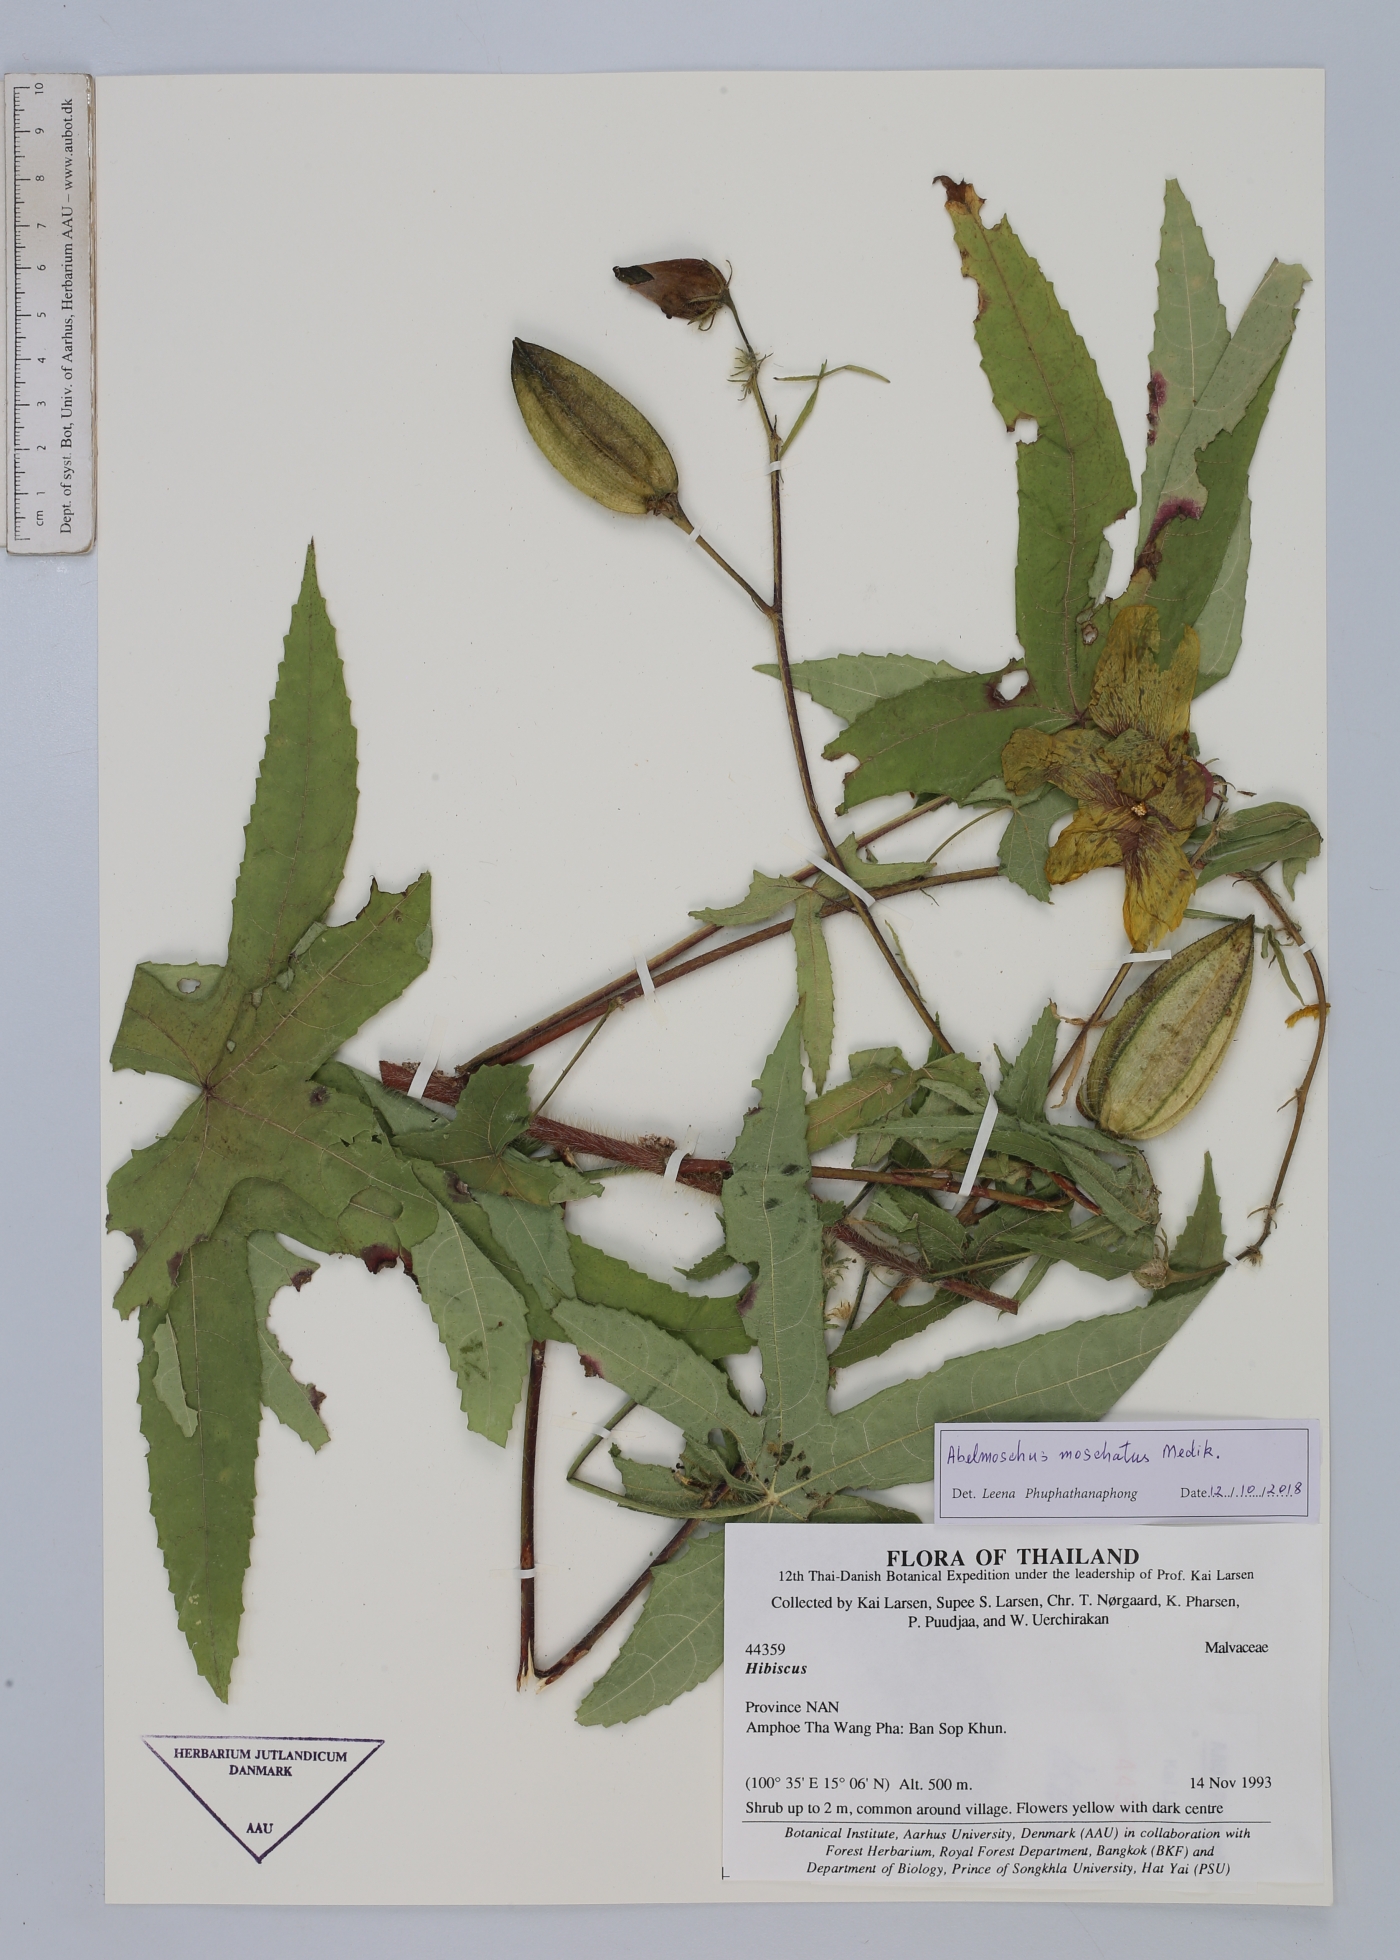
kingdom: Plantae
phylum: Tracheophyta
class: Magnoliopsida
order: Malvales
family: Malvaceae
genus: Abelmoschus
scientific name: Abelmoschus moschatus
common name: Musk okra
